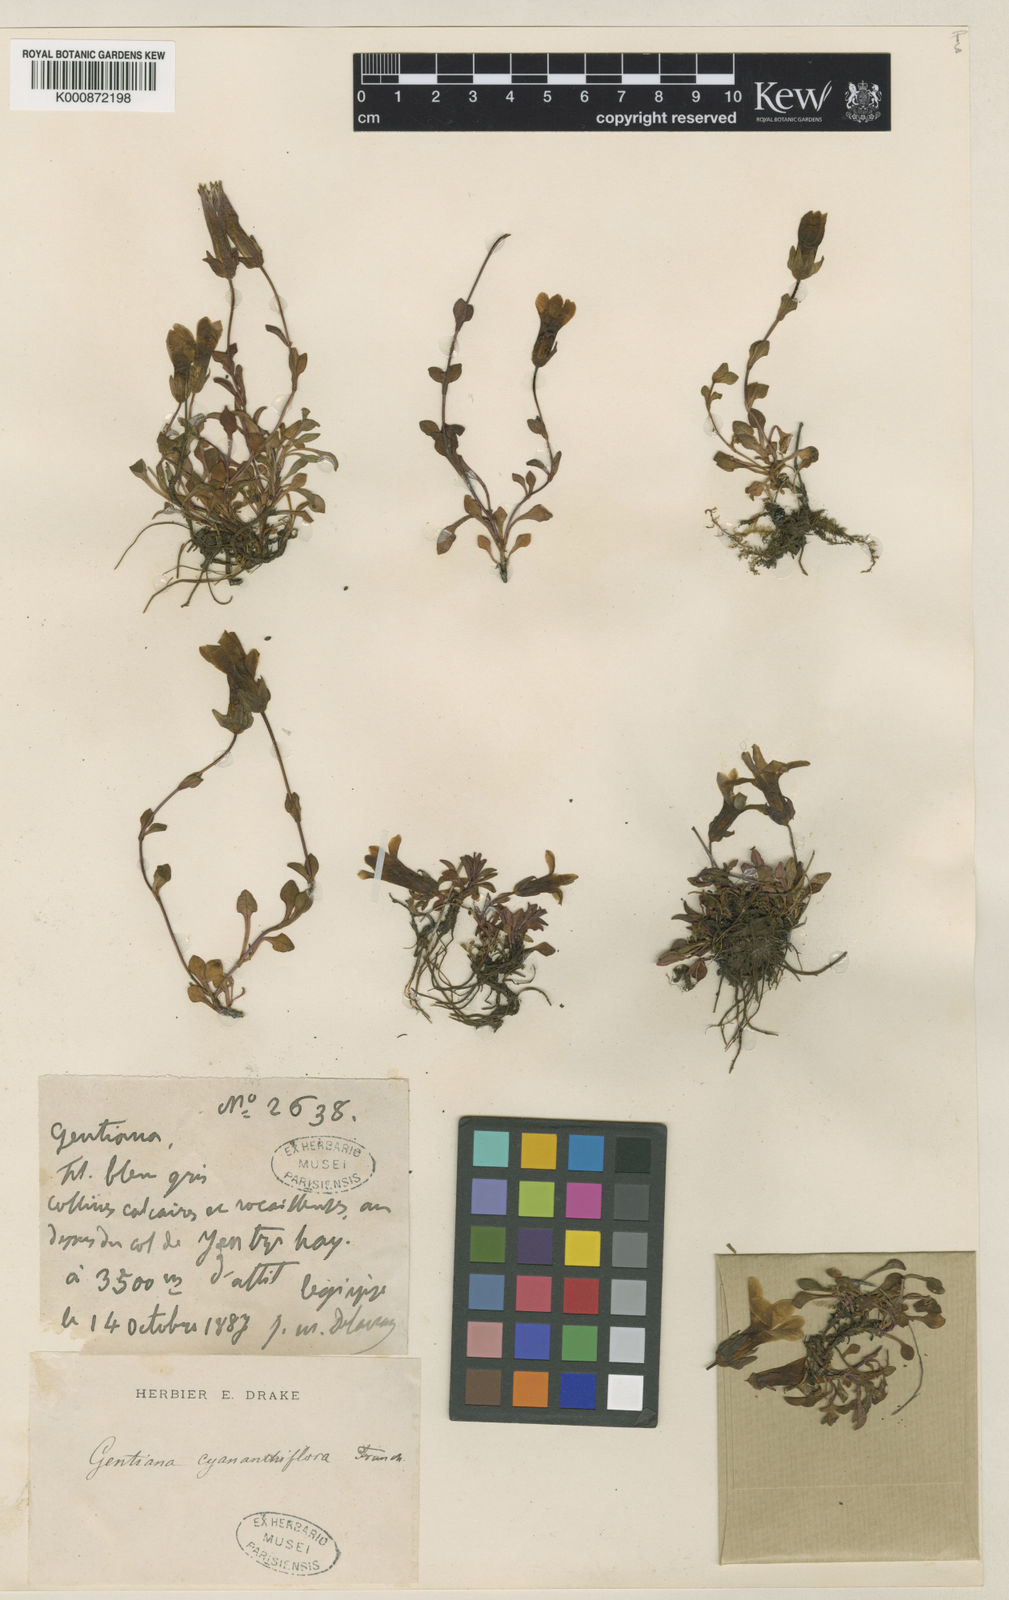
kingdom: Plantae
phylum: Tracheophyta
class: Magnoliopsida
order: Gentianales
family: Gentianaceae
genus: Comastoma
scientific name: Comastoma cyananthiflorum
